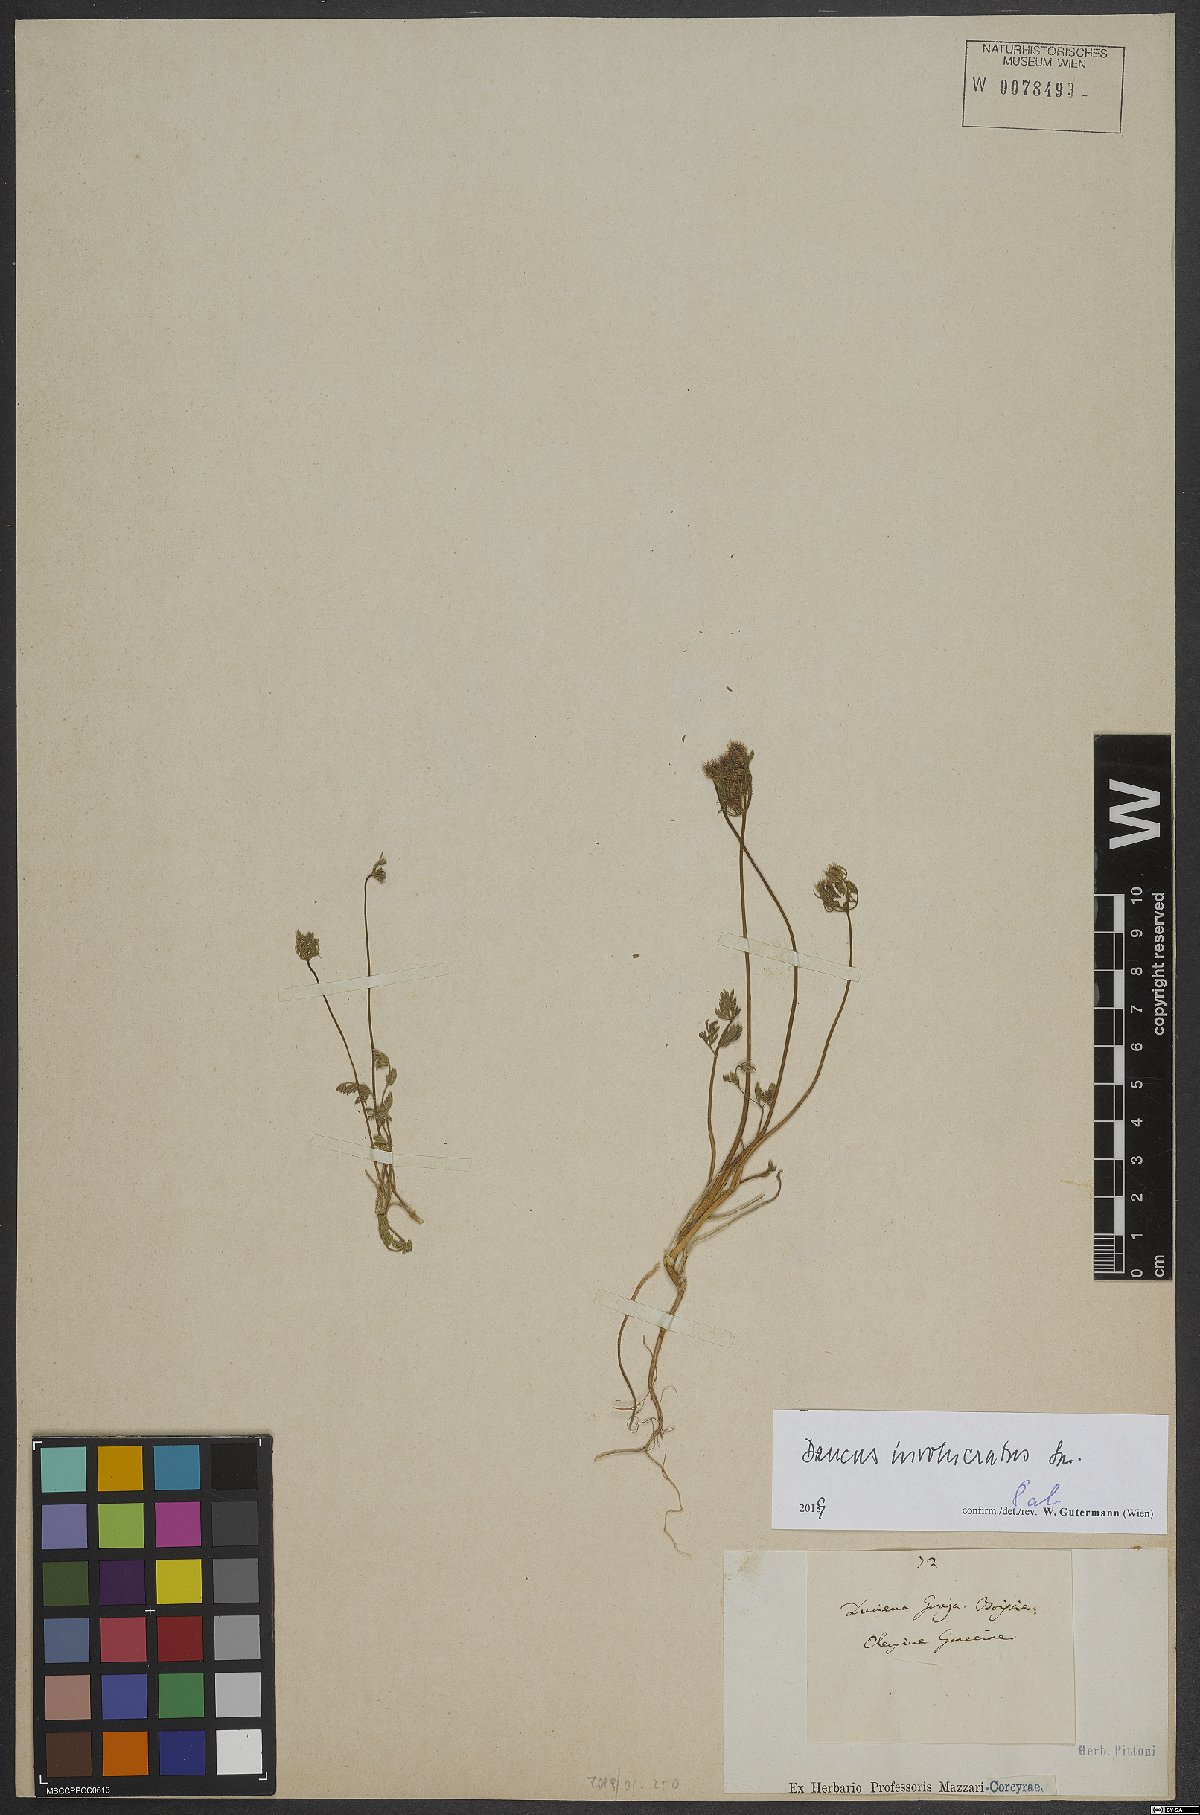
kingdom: Plantae
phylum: Tracheophyta
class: Magnoliopsida
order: Apiales
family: Apiaceae
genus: Daucus
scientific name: Daucus involucratus
